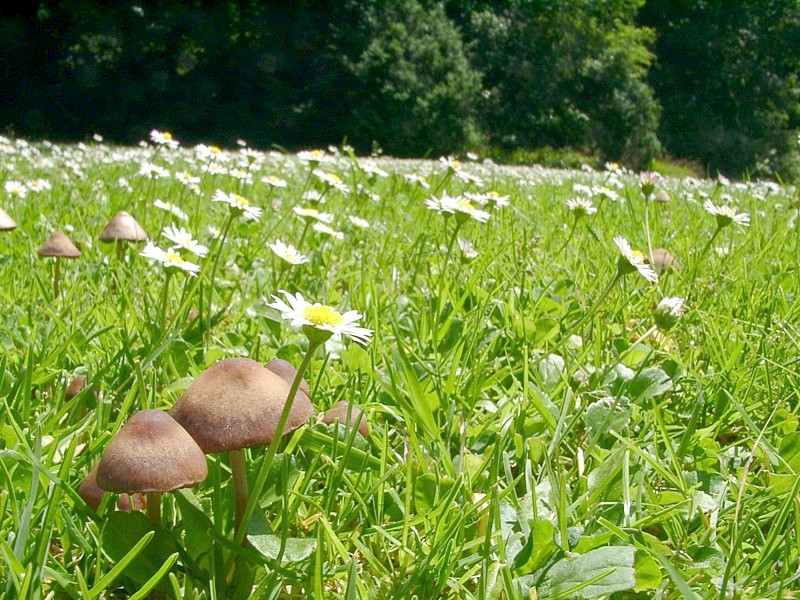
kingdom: Fungi
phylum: Basidiomycota
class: Agaricomycetes
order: Agaricales
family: Bolbitiaceae
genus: Panaeolina
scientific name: Panaeolina foenisecii
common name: Brown hay cap
